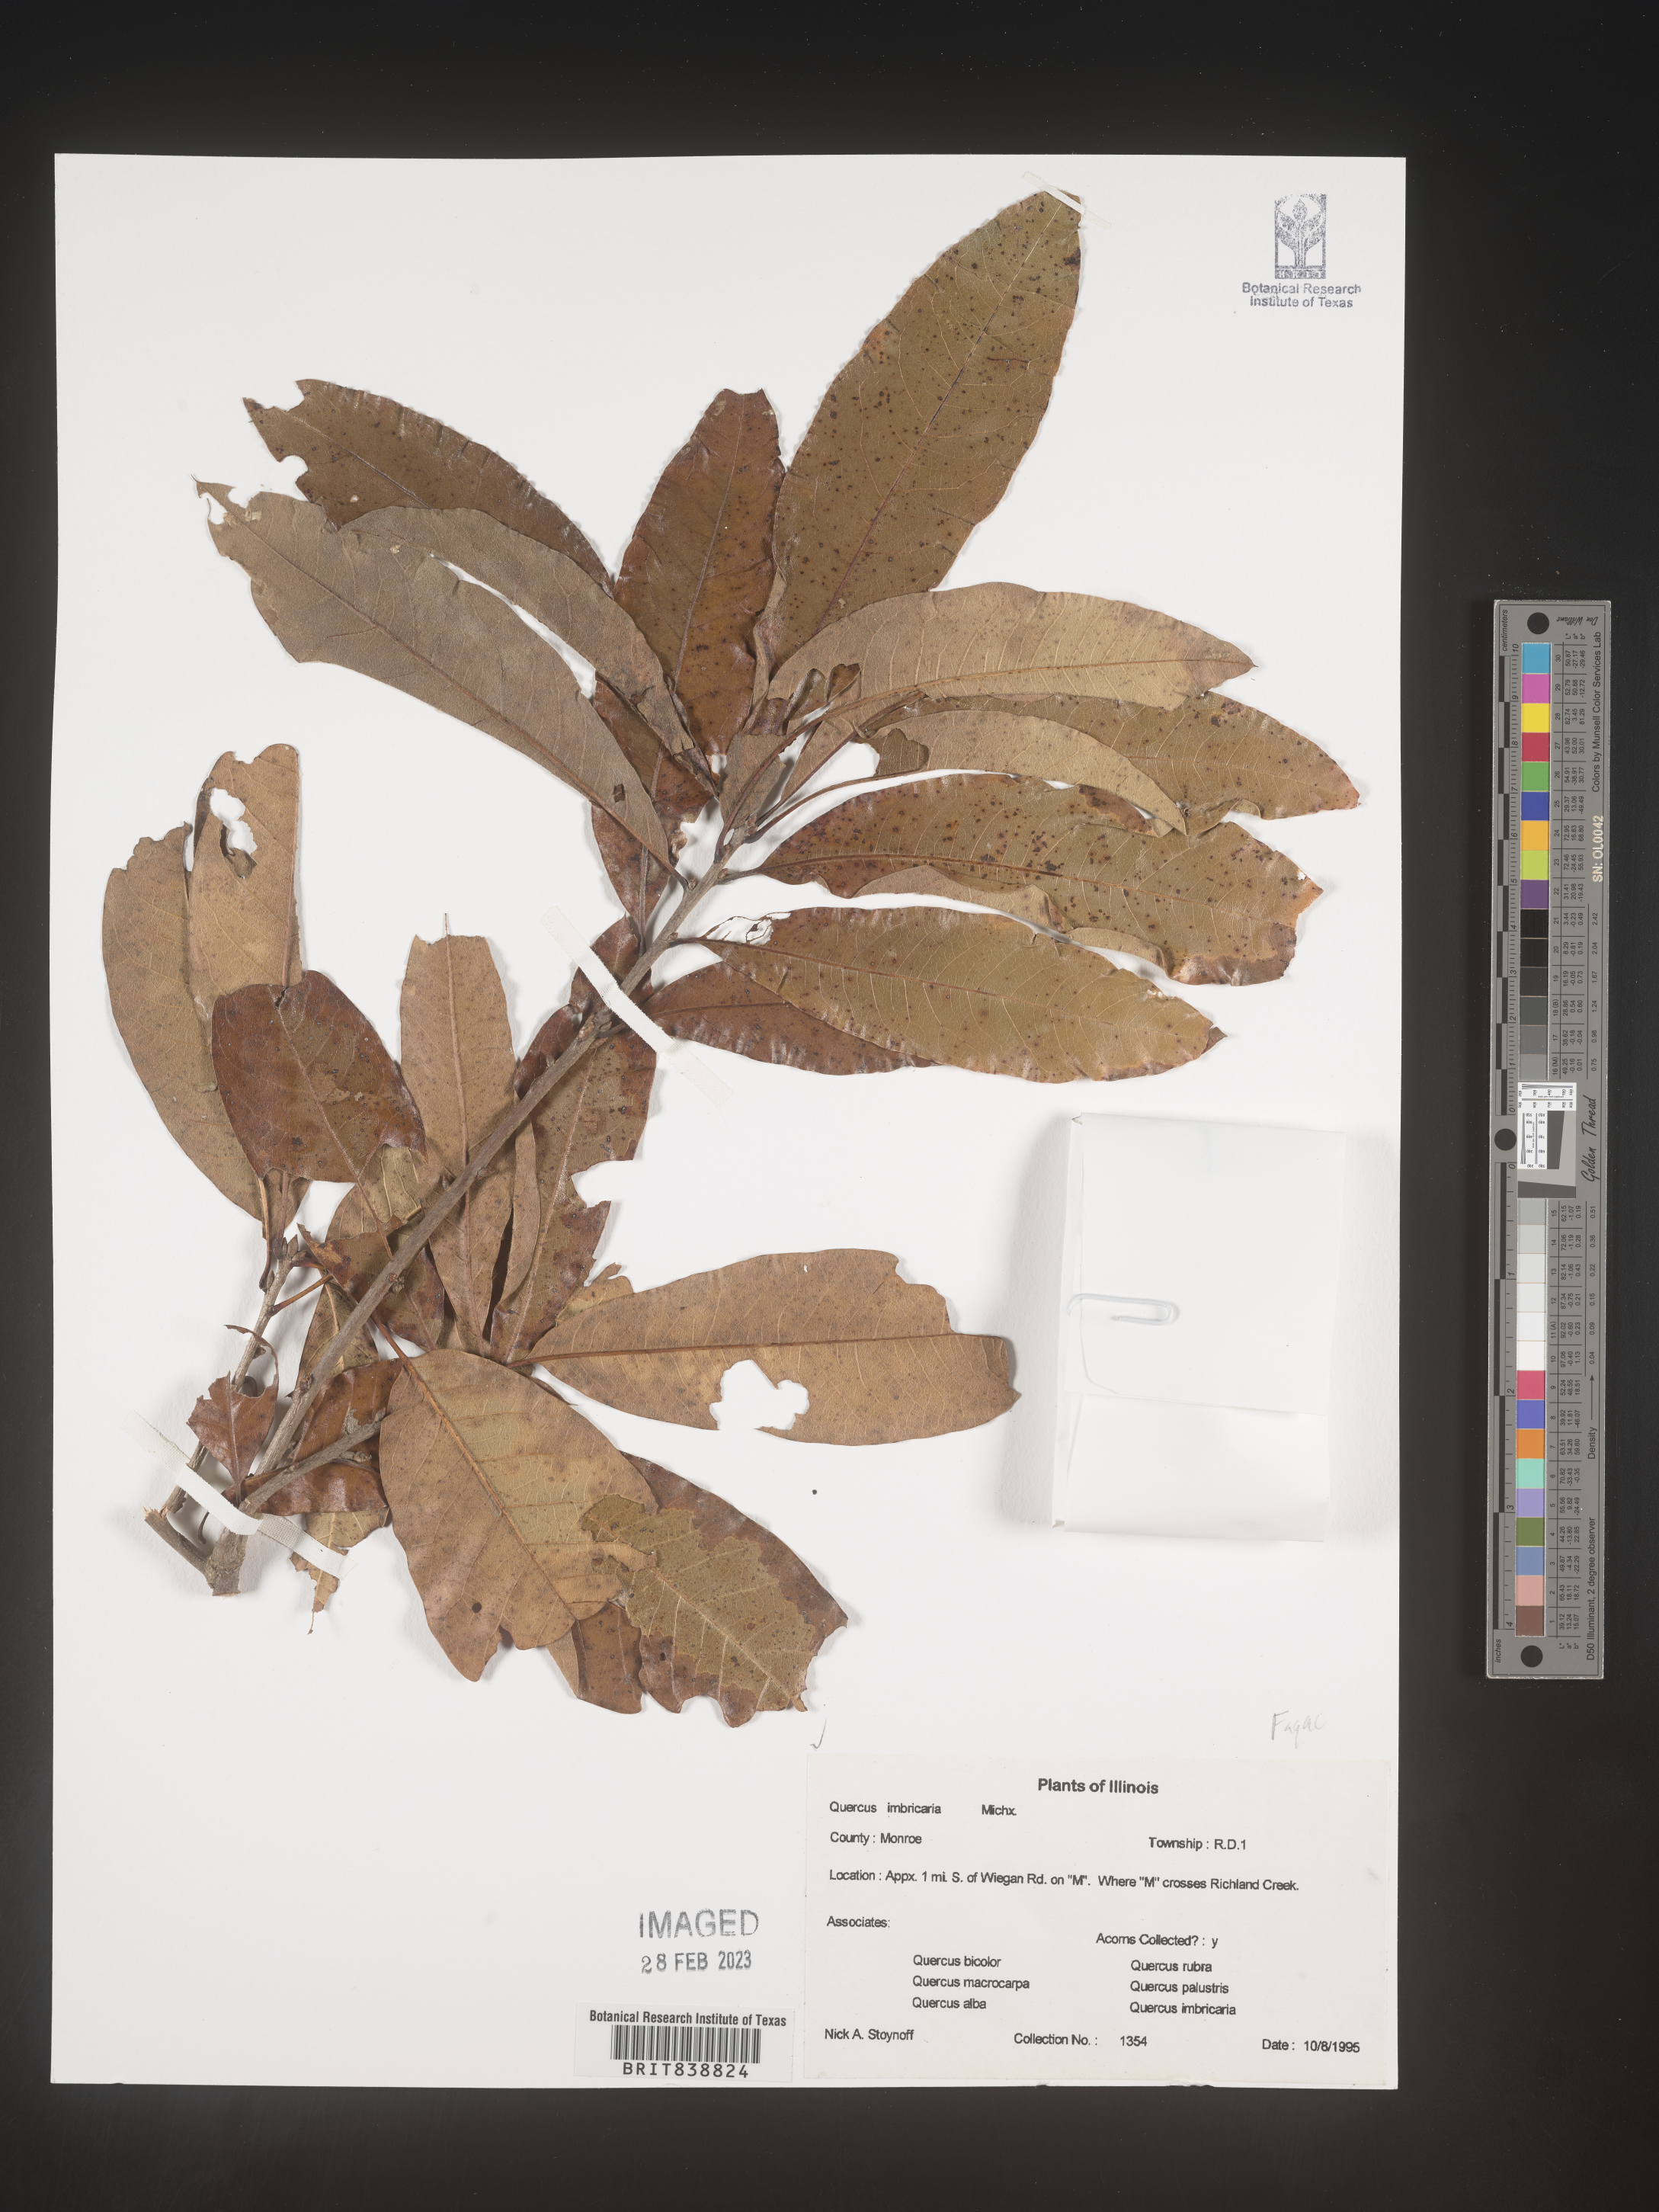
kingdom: Plantae
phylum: Tracheophyta
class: Magnoliopsida
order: Fagales
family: Fagaceae
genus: Quercus
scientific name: Quercus imbricaria
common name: Shingle oak
